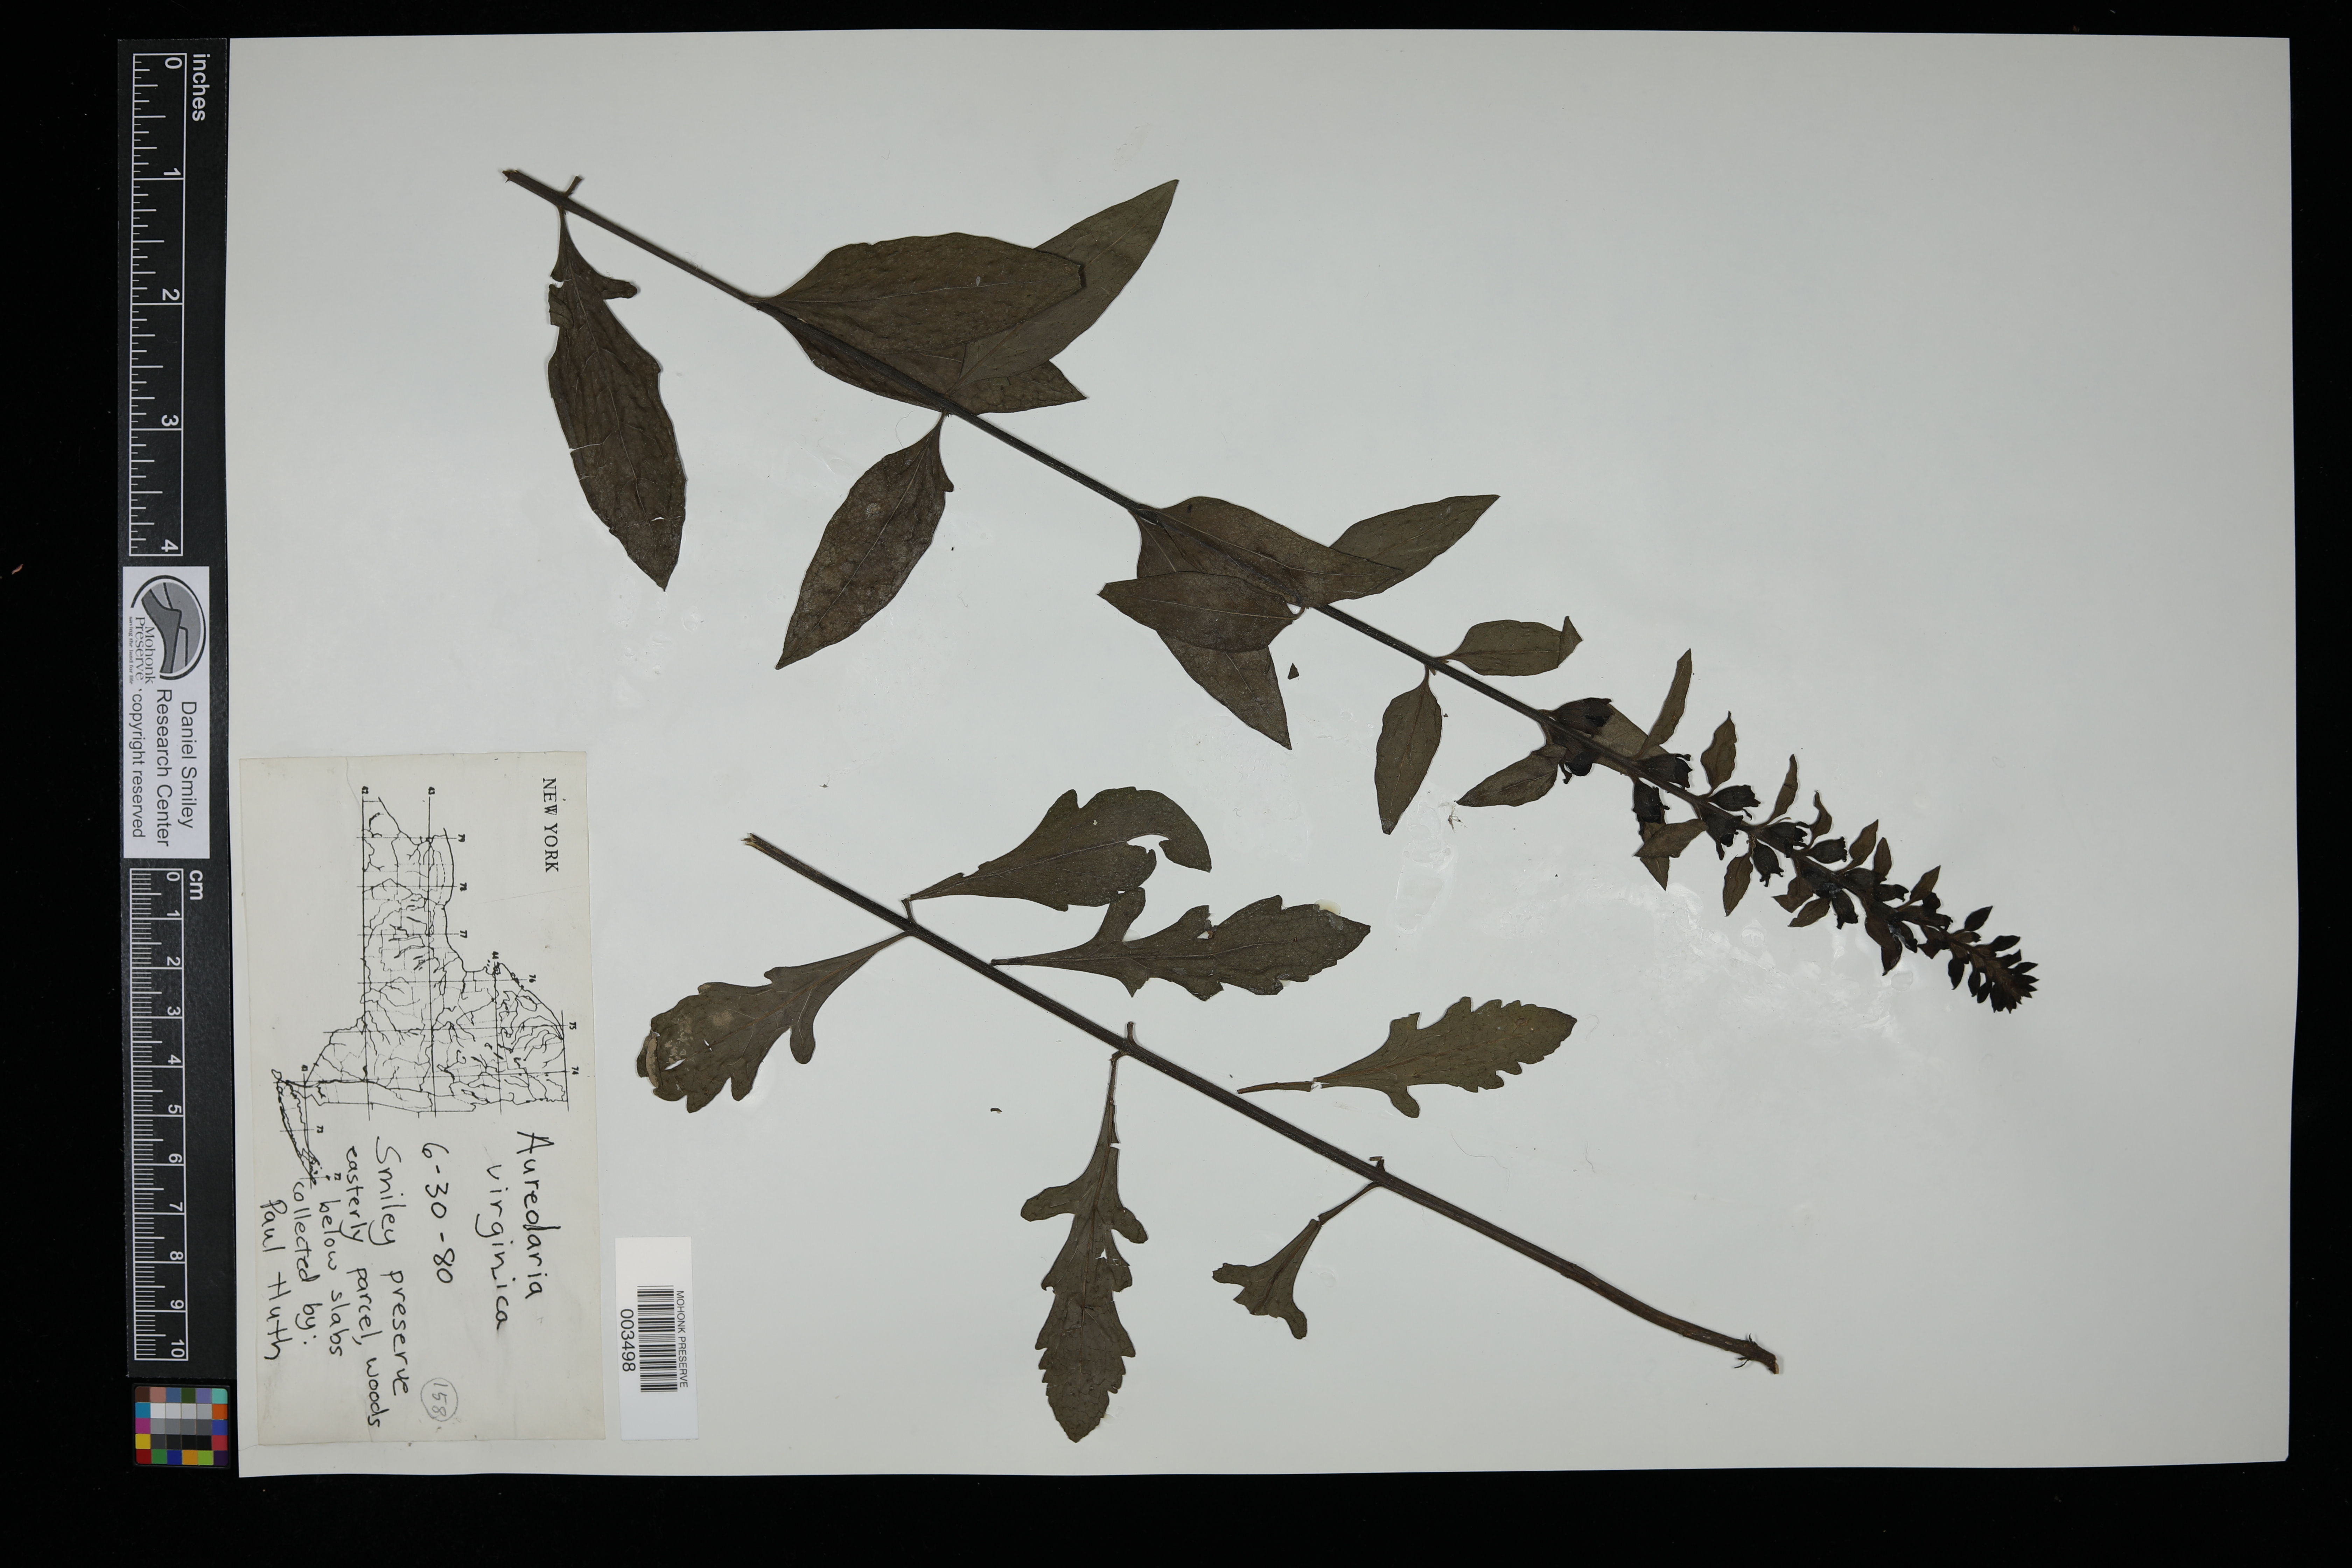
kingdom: Plantae
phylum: Tracheophyta
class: Magnoliopsida
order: Lamiales
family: Orobanchaceae
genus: Aureolaria
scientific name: Aureolaria virginica
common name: Downy false foxglove
